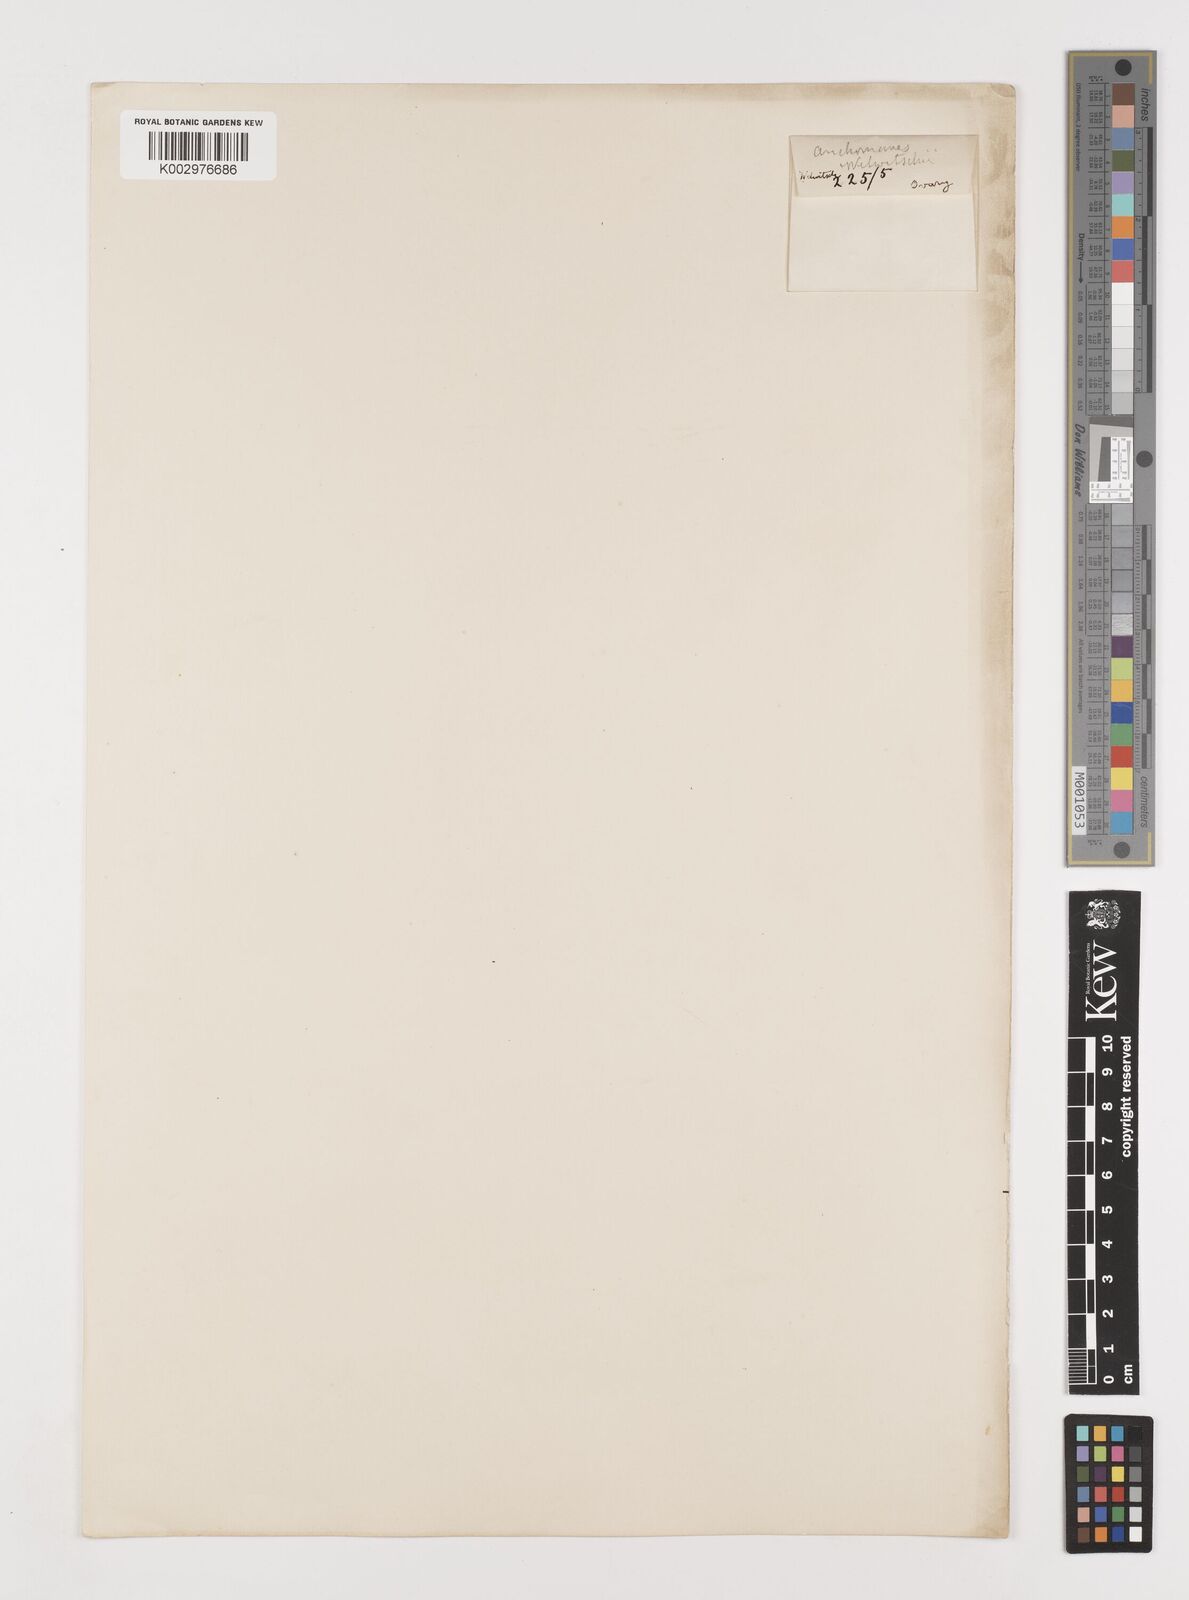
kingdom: Plantae
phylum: Tracheophyta
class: Liliopsida
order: Alismatales
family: Araceae
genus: Anchomanes
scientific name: Anchomanes difformis
